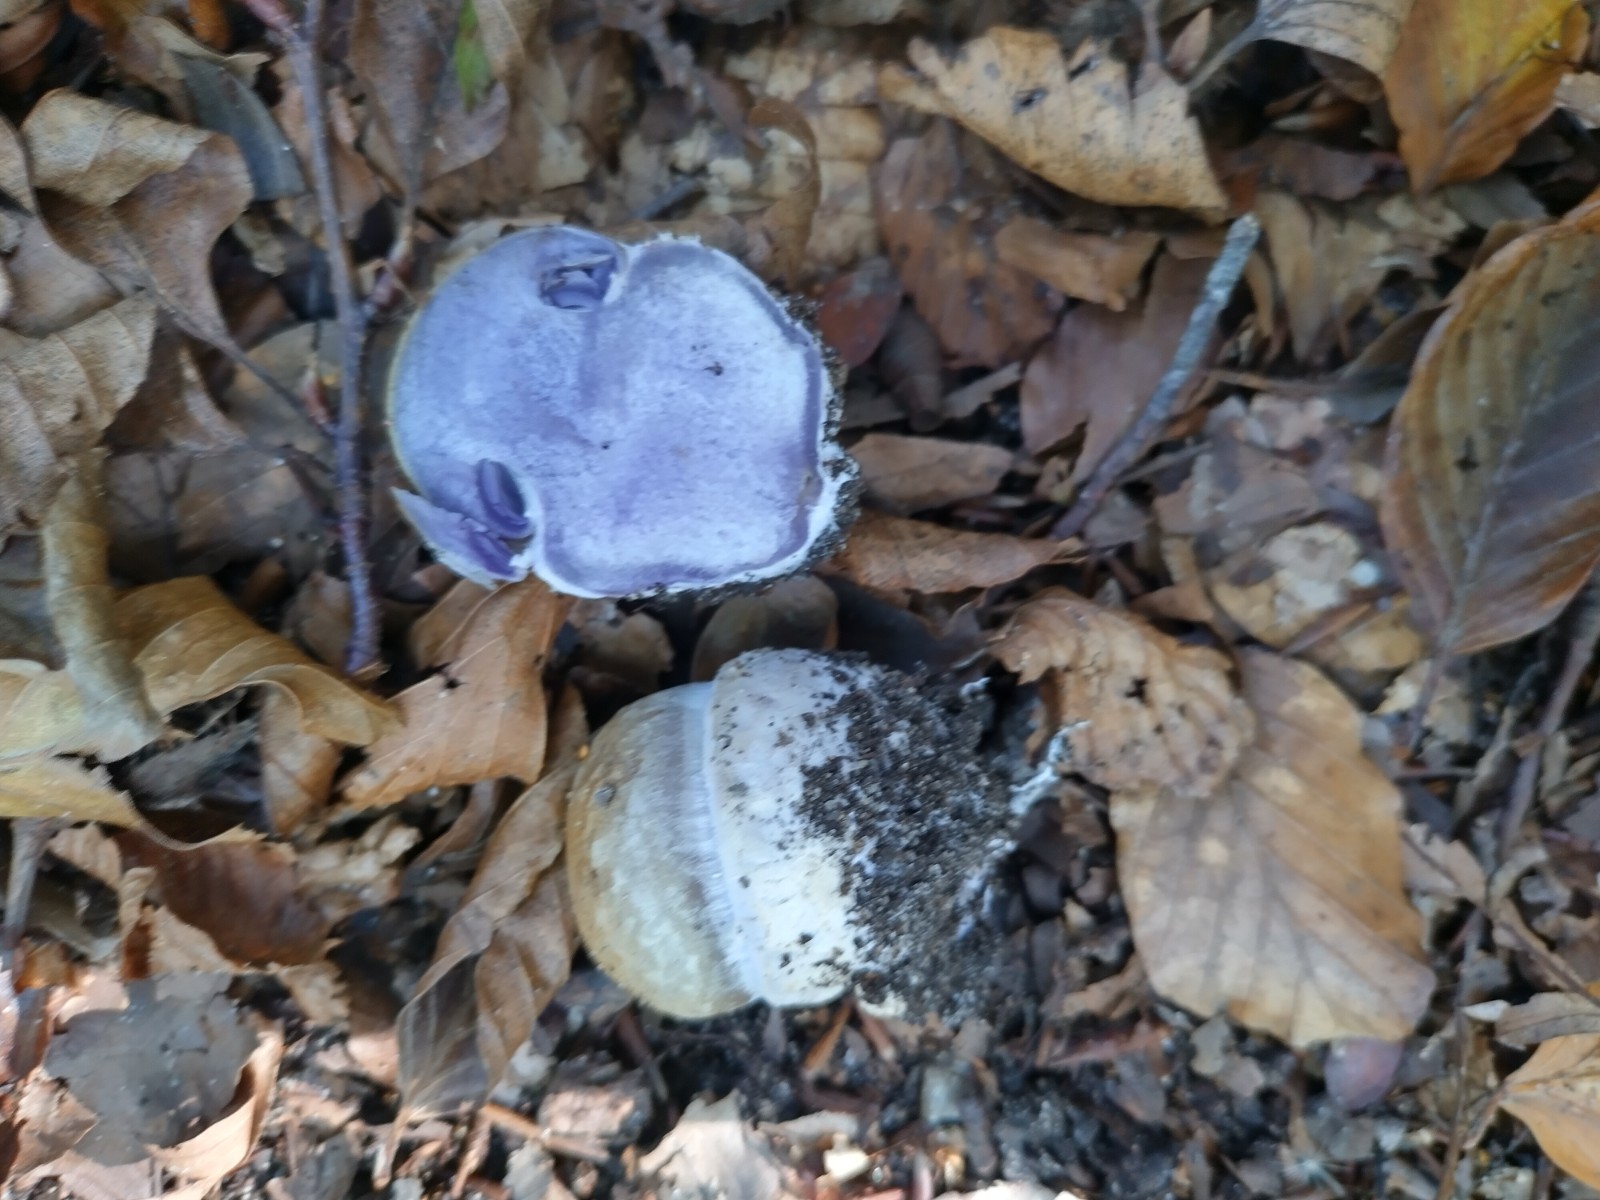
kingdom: Fungi
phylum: Basidiomycota
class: Agaricomycetes
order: Agaricales
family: Cortinariaceae
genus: Cortinarius
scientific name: Cortinarius anserinus
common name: bøge-slørhat
